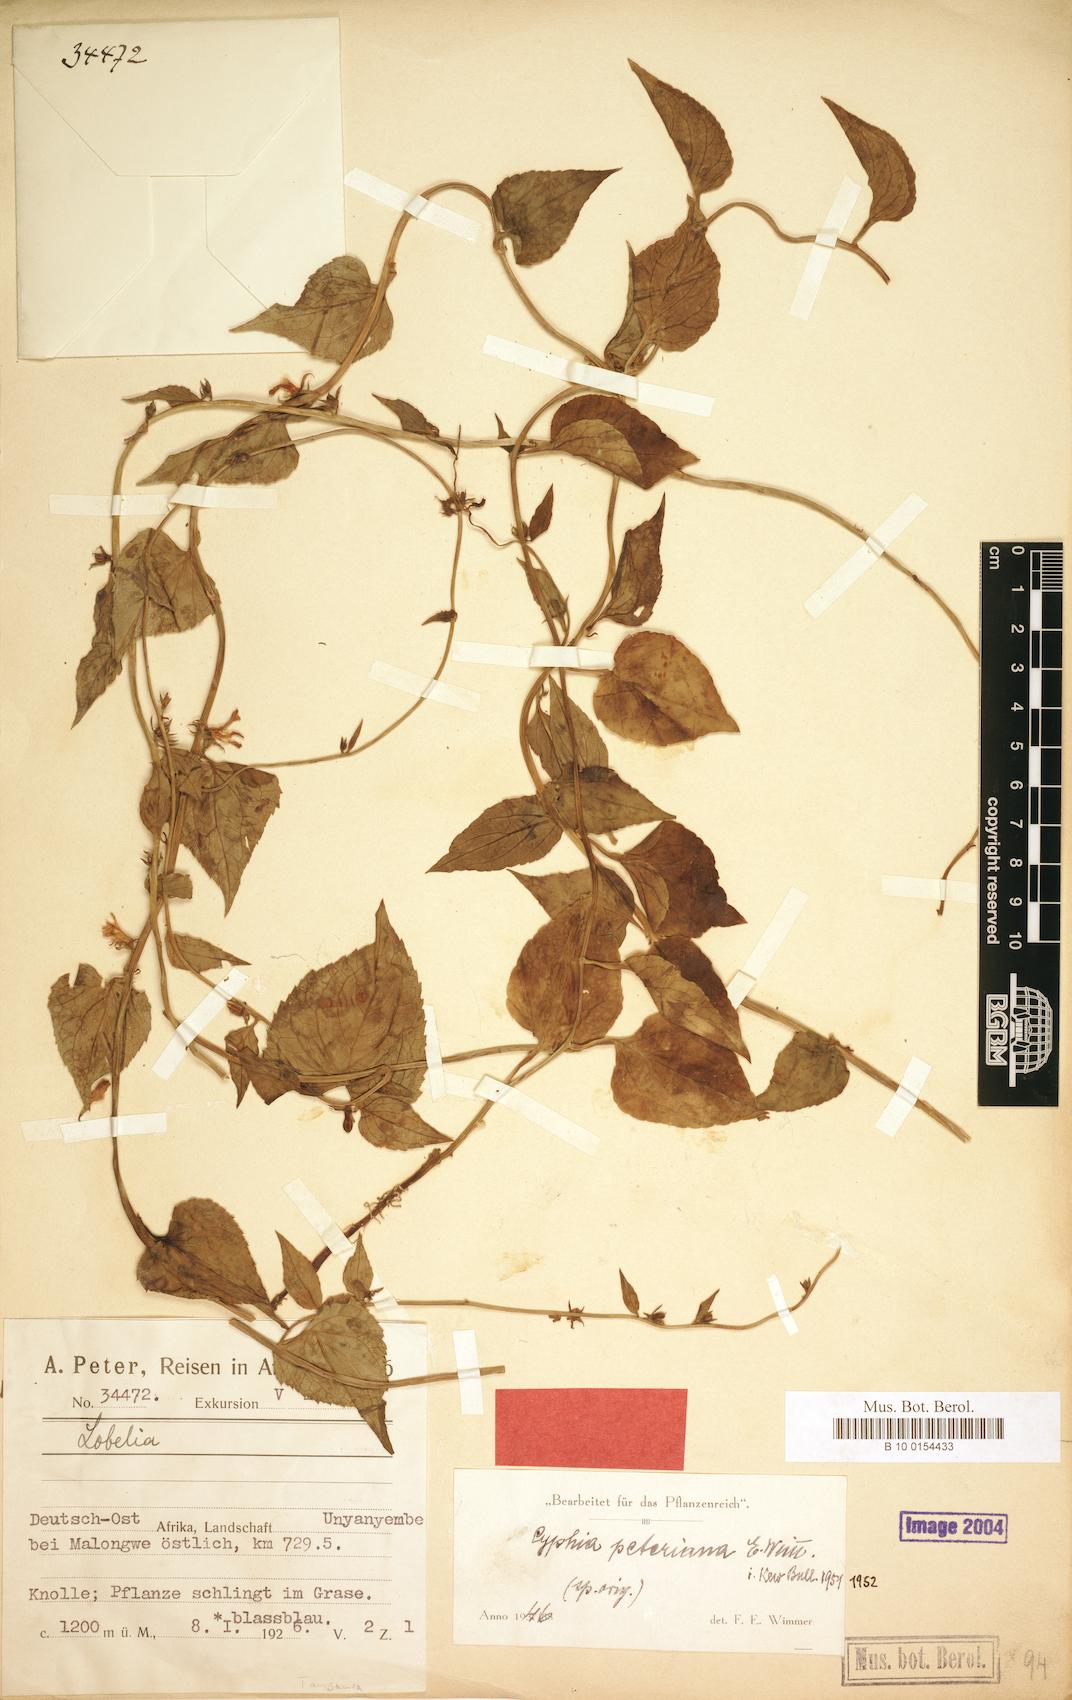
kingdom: Plantae
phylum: Tracheophyta
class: Magnoliopsida
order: Asterales
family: Campanulaceae
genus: Cyphia
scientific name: Cyphia lasiandra
